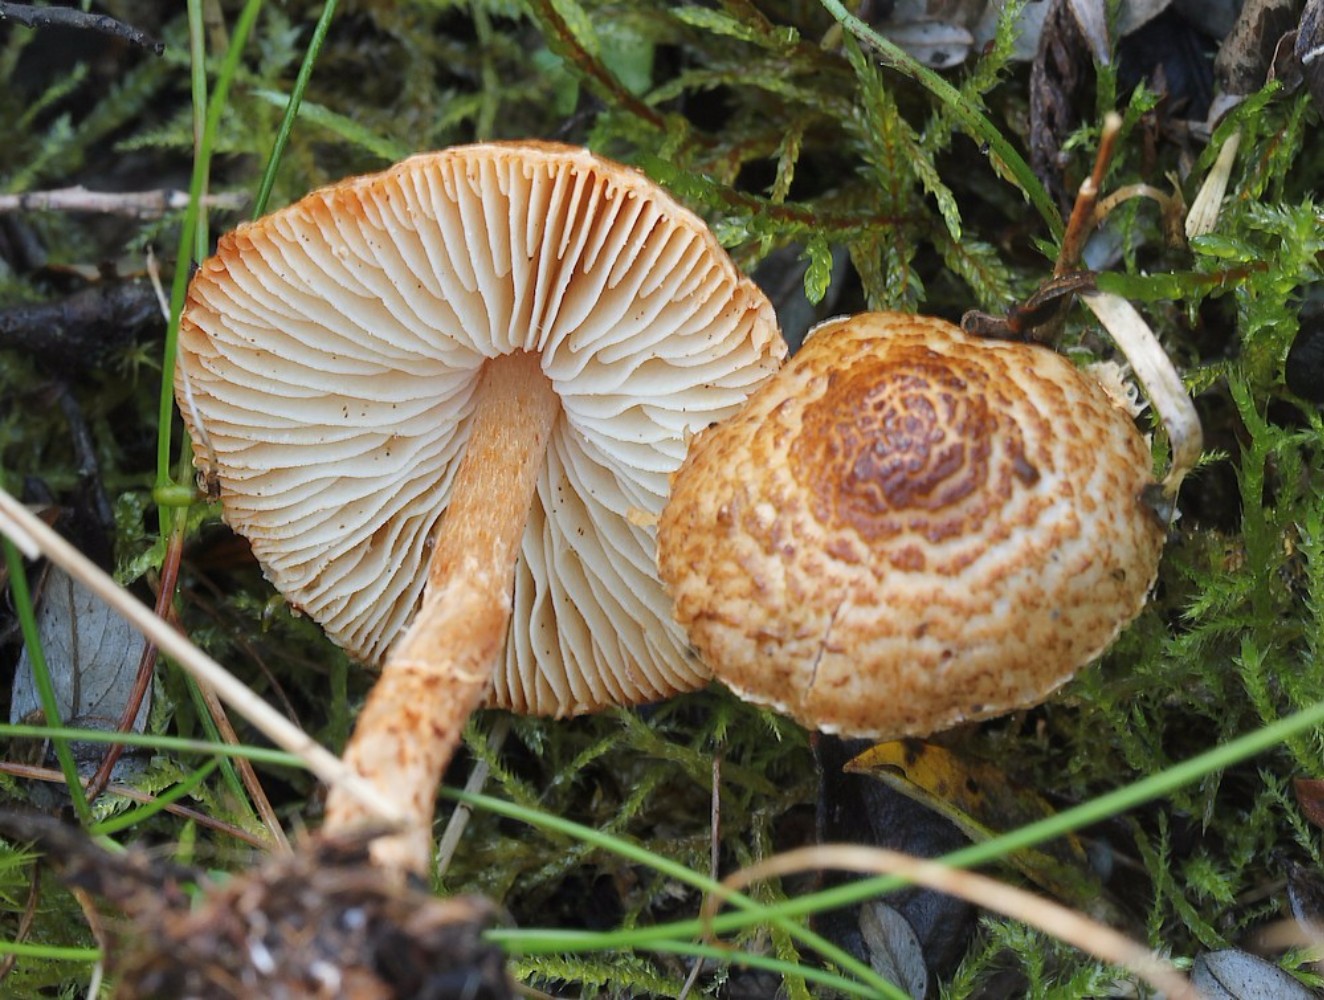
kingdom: Fungi
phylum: Basidiomycota
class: Agaricomycetes
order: Agaricales
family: Agaricaceae
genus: Lepiota
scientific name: Lepiota pseudolilacea
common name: gråbrun parasolhat
